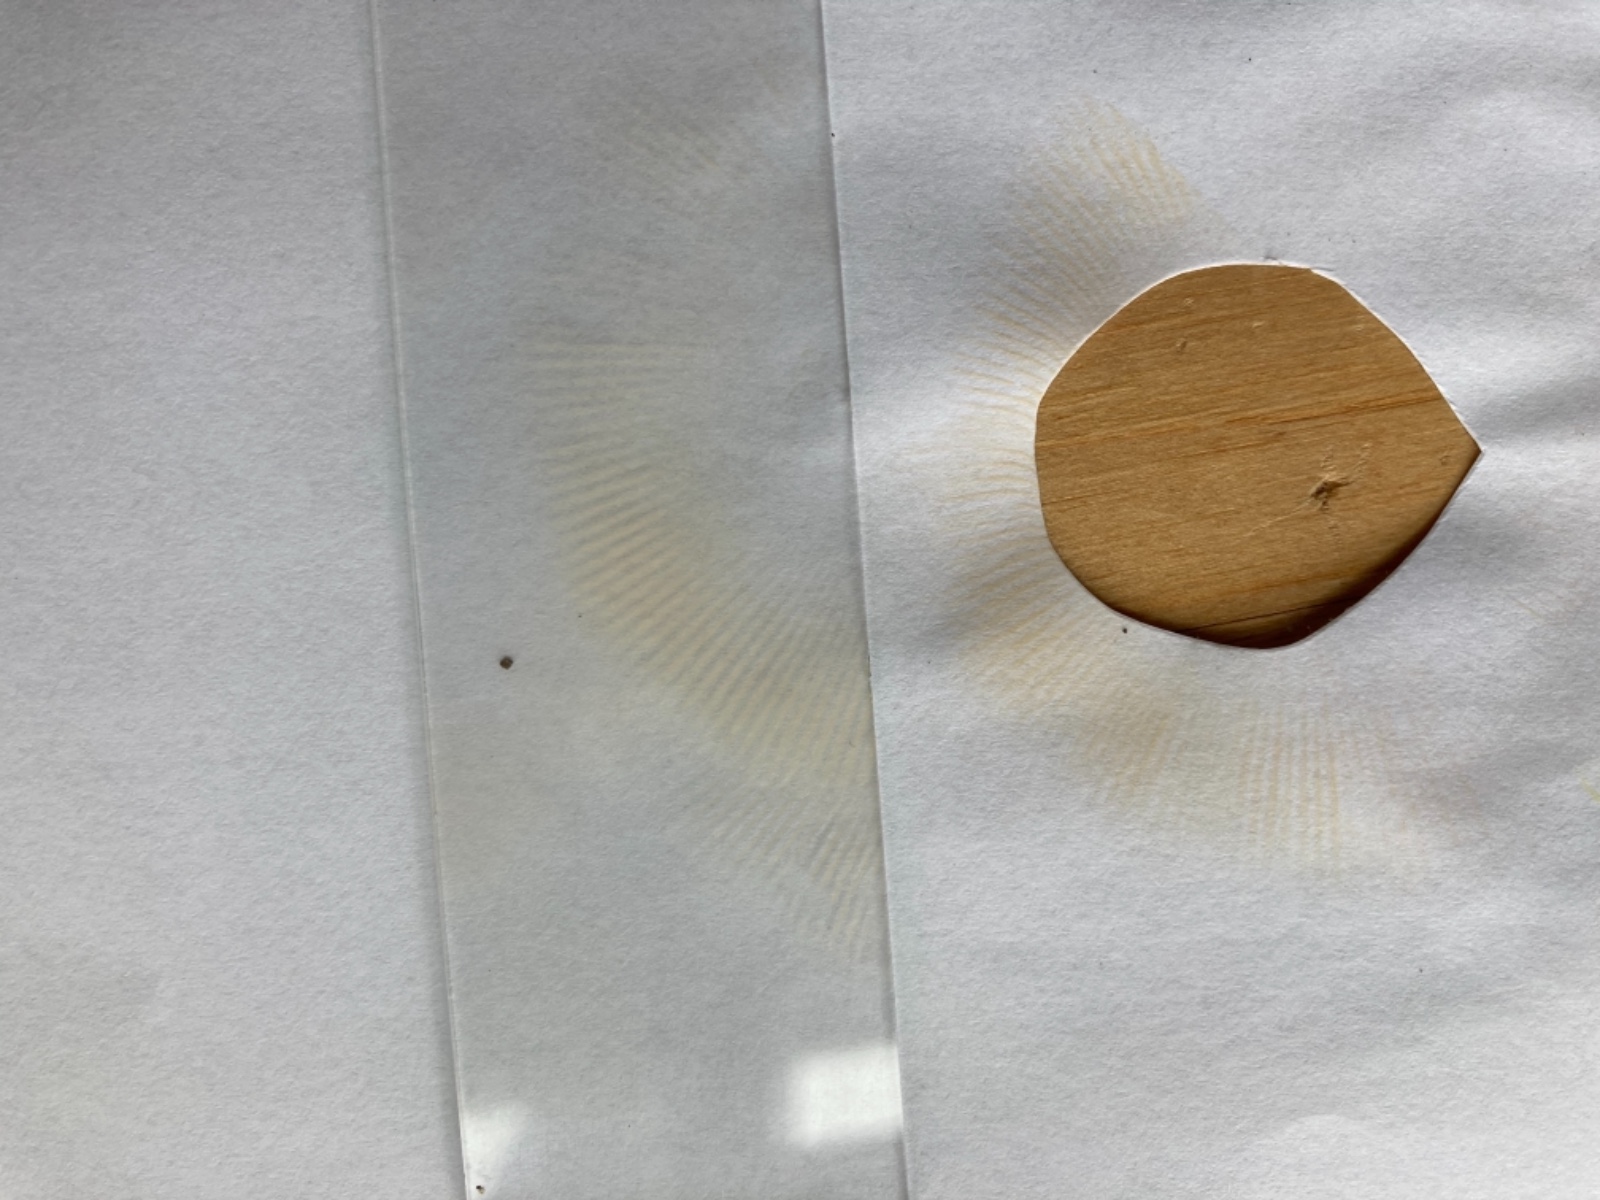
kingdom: Fungi
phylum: Basidiomycota
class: Agaricomycetes
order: Russulales
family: Russulaceae
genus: Russula
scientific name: Russula romellii
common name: romells skørhat
